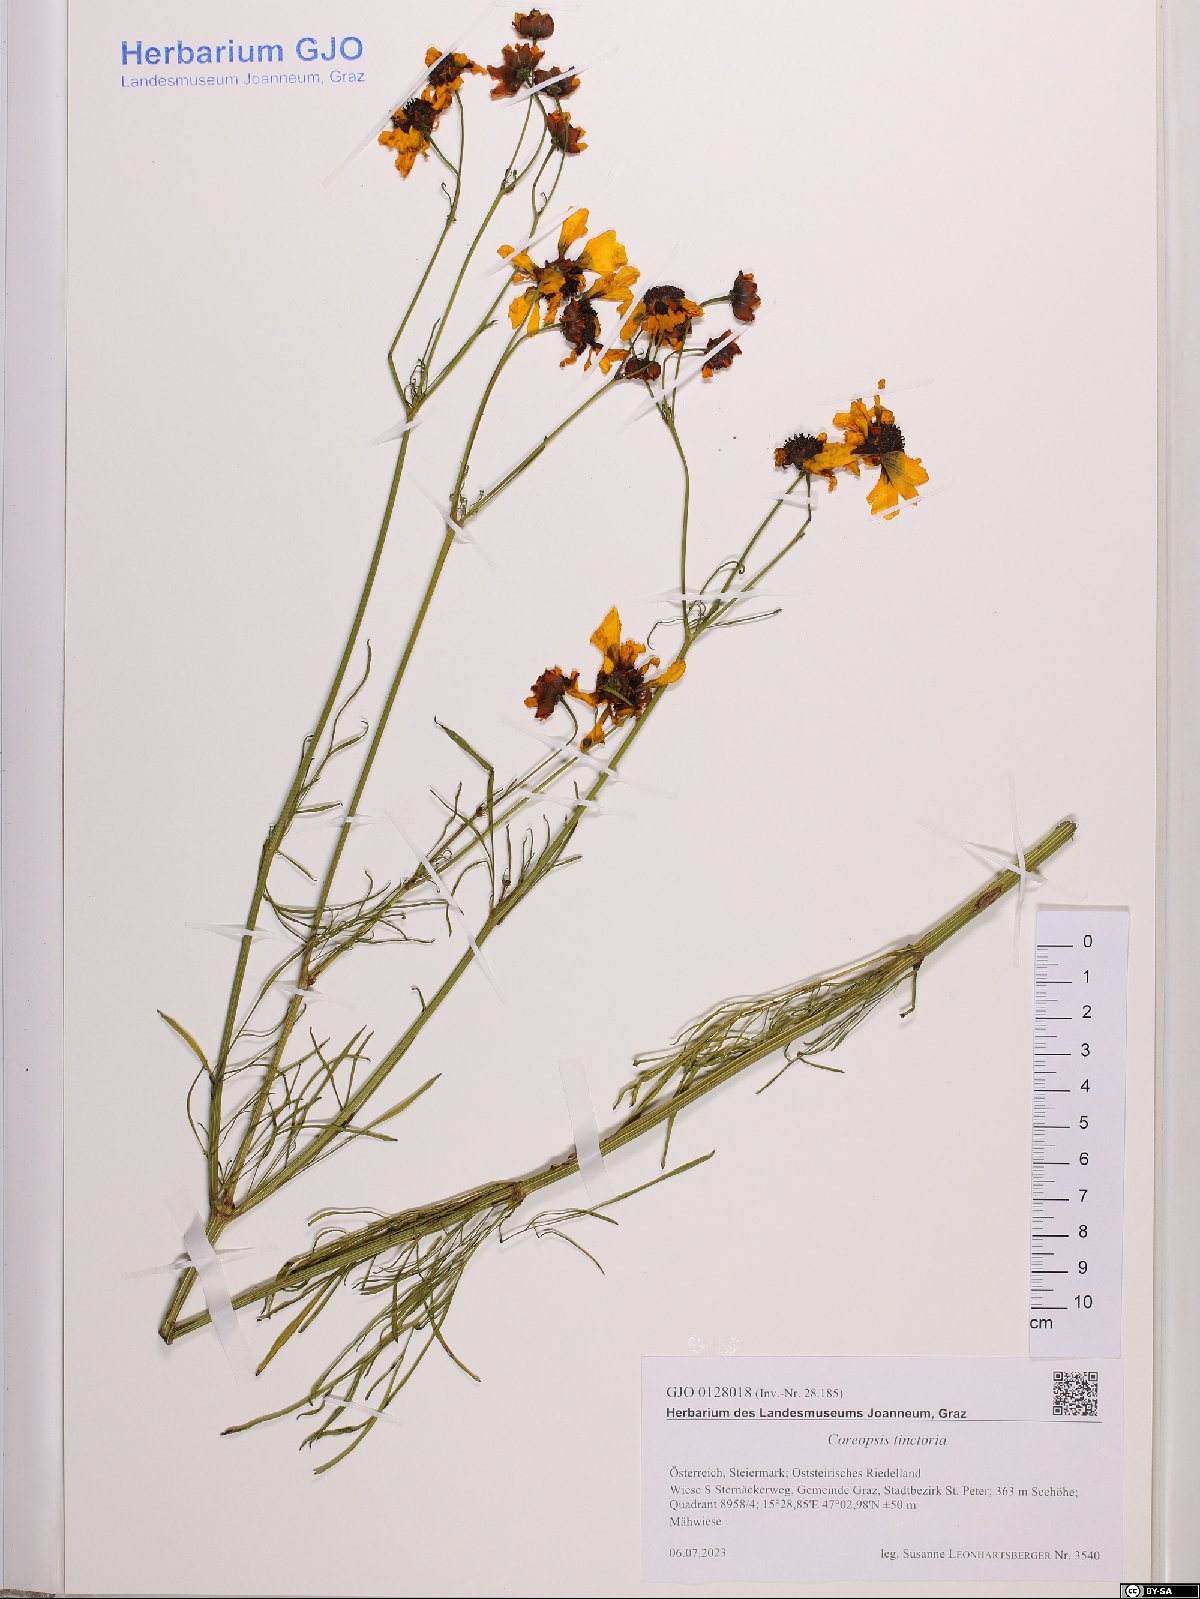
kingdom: Plantae
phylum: Tracheophyta
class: Magnoliopsida
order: Asterales
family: Asteraceae
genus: Coreopsis
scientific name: Coreopsis tinctoria
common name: Garden tickseed
